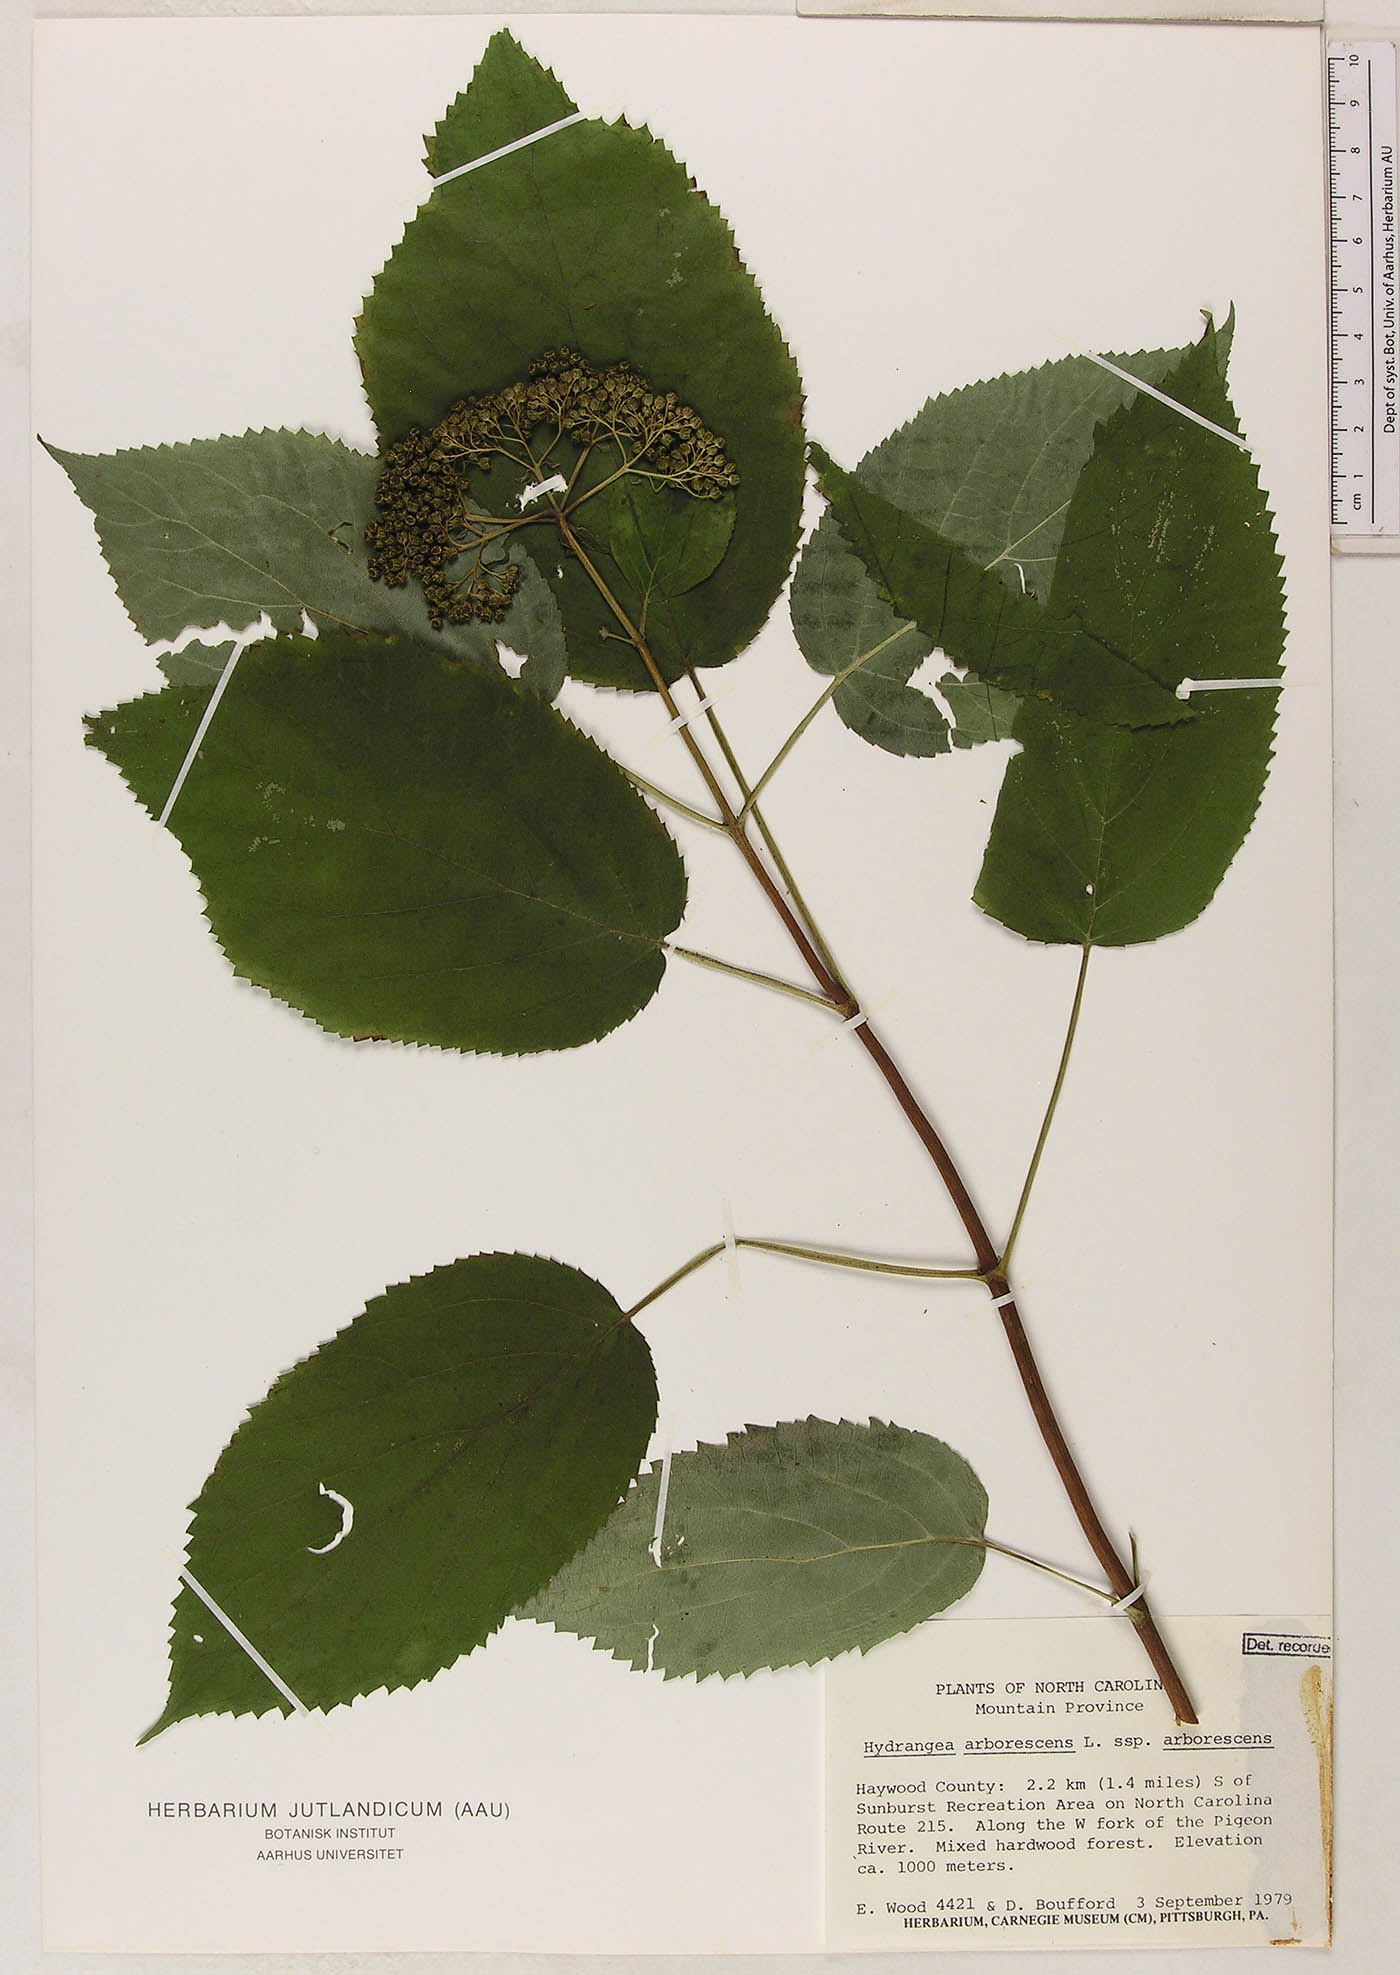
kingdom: Plantae
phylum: Tracheophyta
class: Magnoliopsida
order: Cornales
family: Hydrangeaceae
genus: Hydrangea
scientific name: Hydrangea arborescens
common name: Sevenbark
